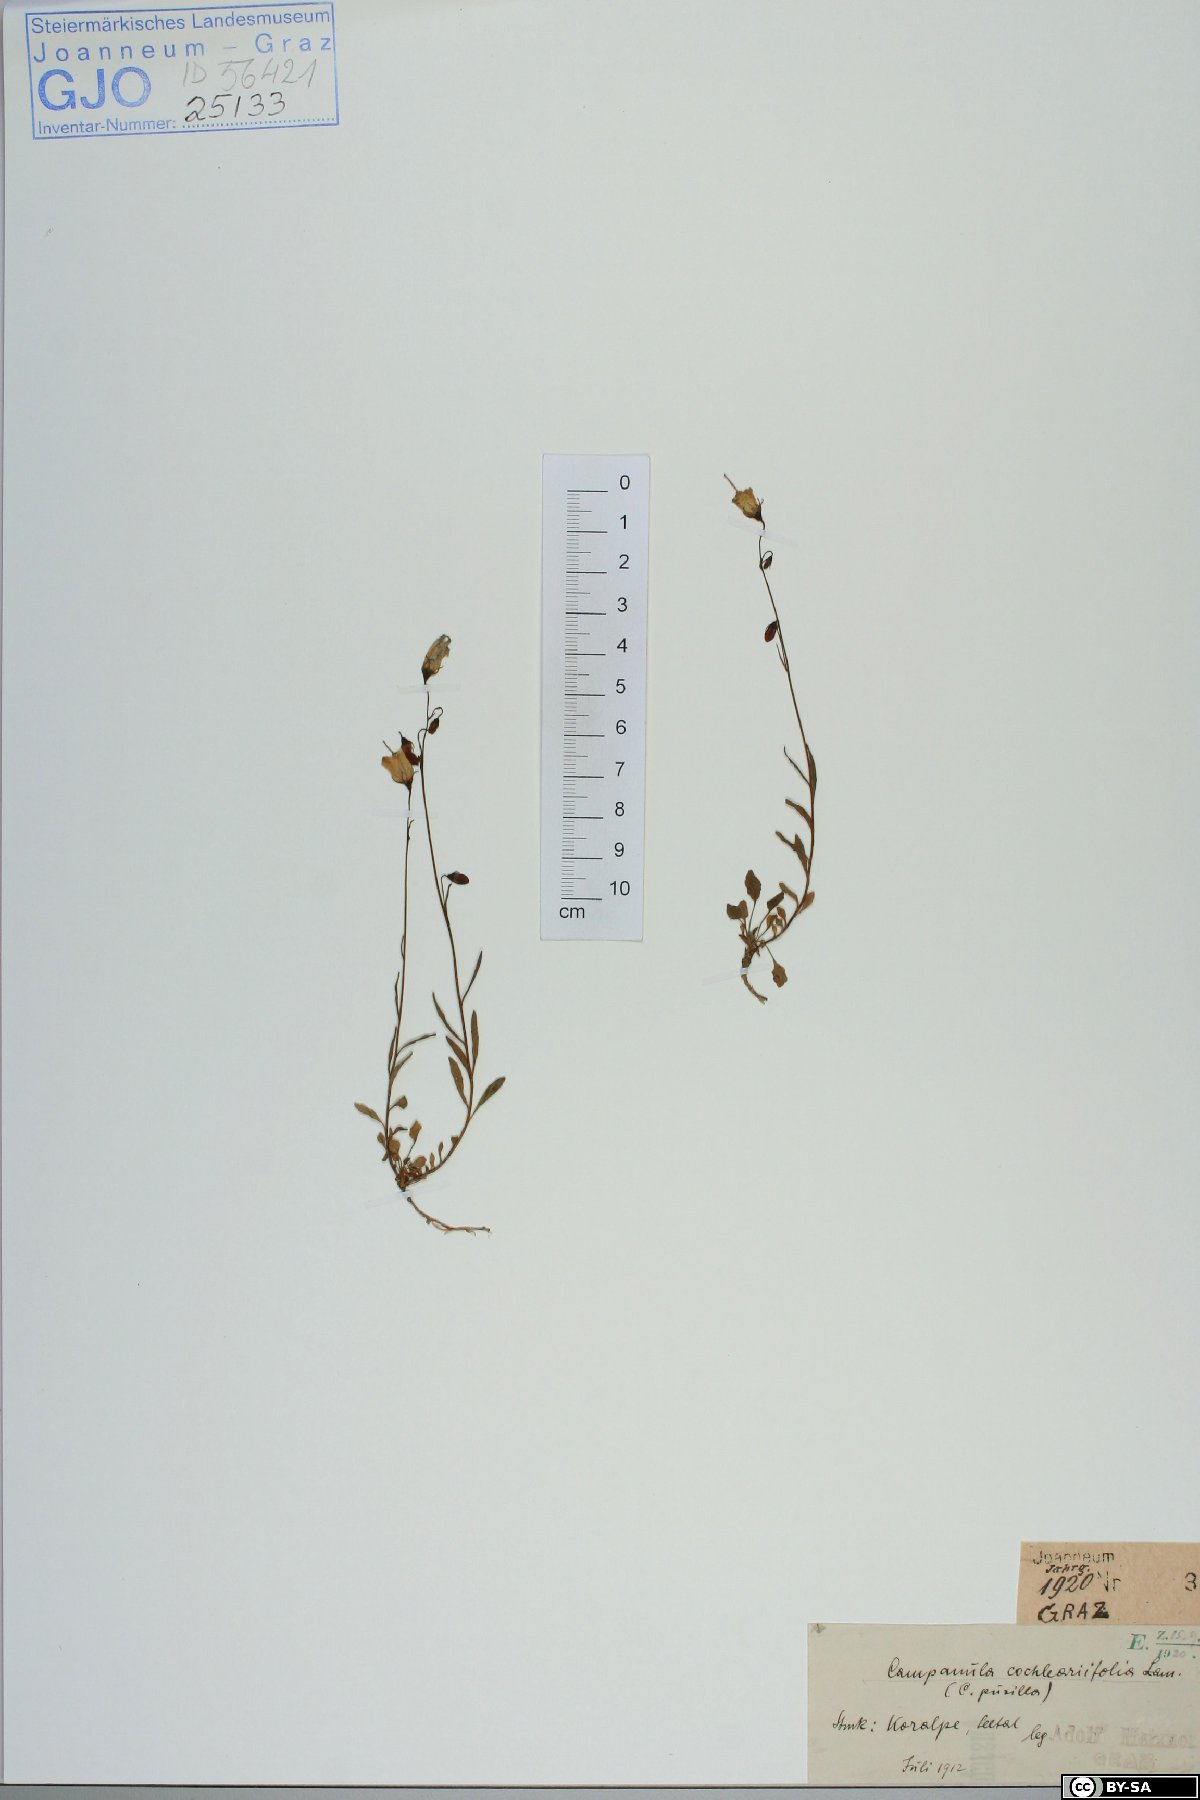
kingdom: Plantae
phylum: Tracheophyta
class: Magnoliopsida
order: Asterales
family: Campanulaceae
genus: Campanula
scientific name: Campanula cochleariifolia
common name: Fairies'-thimbles
